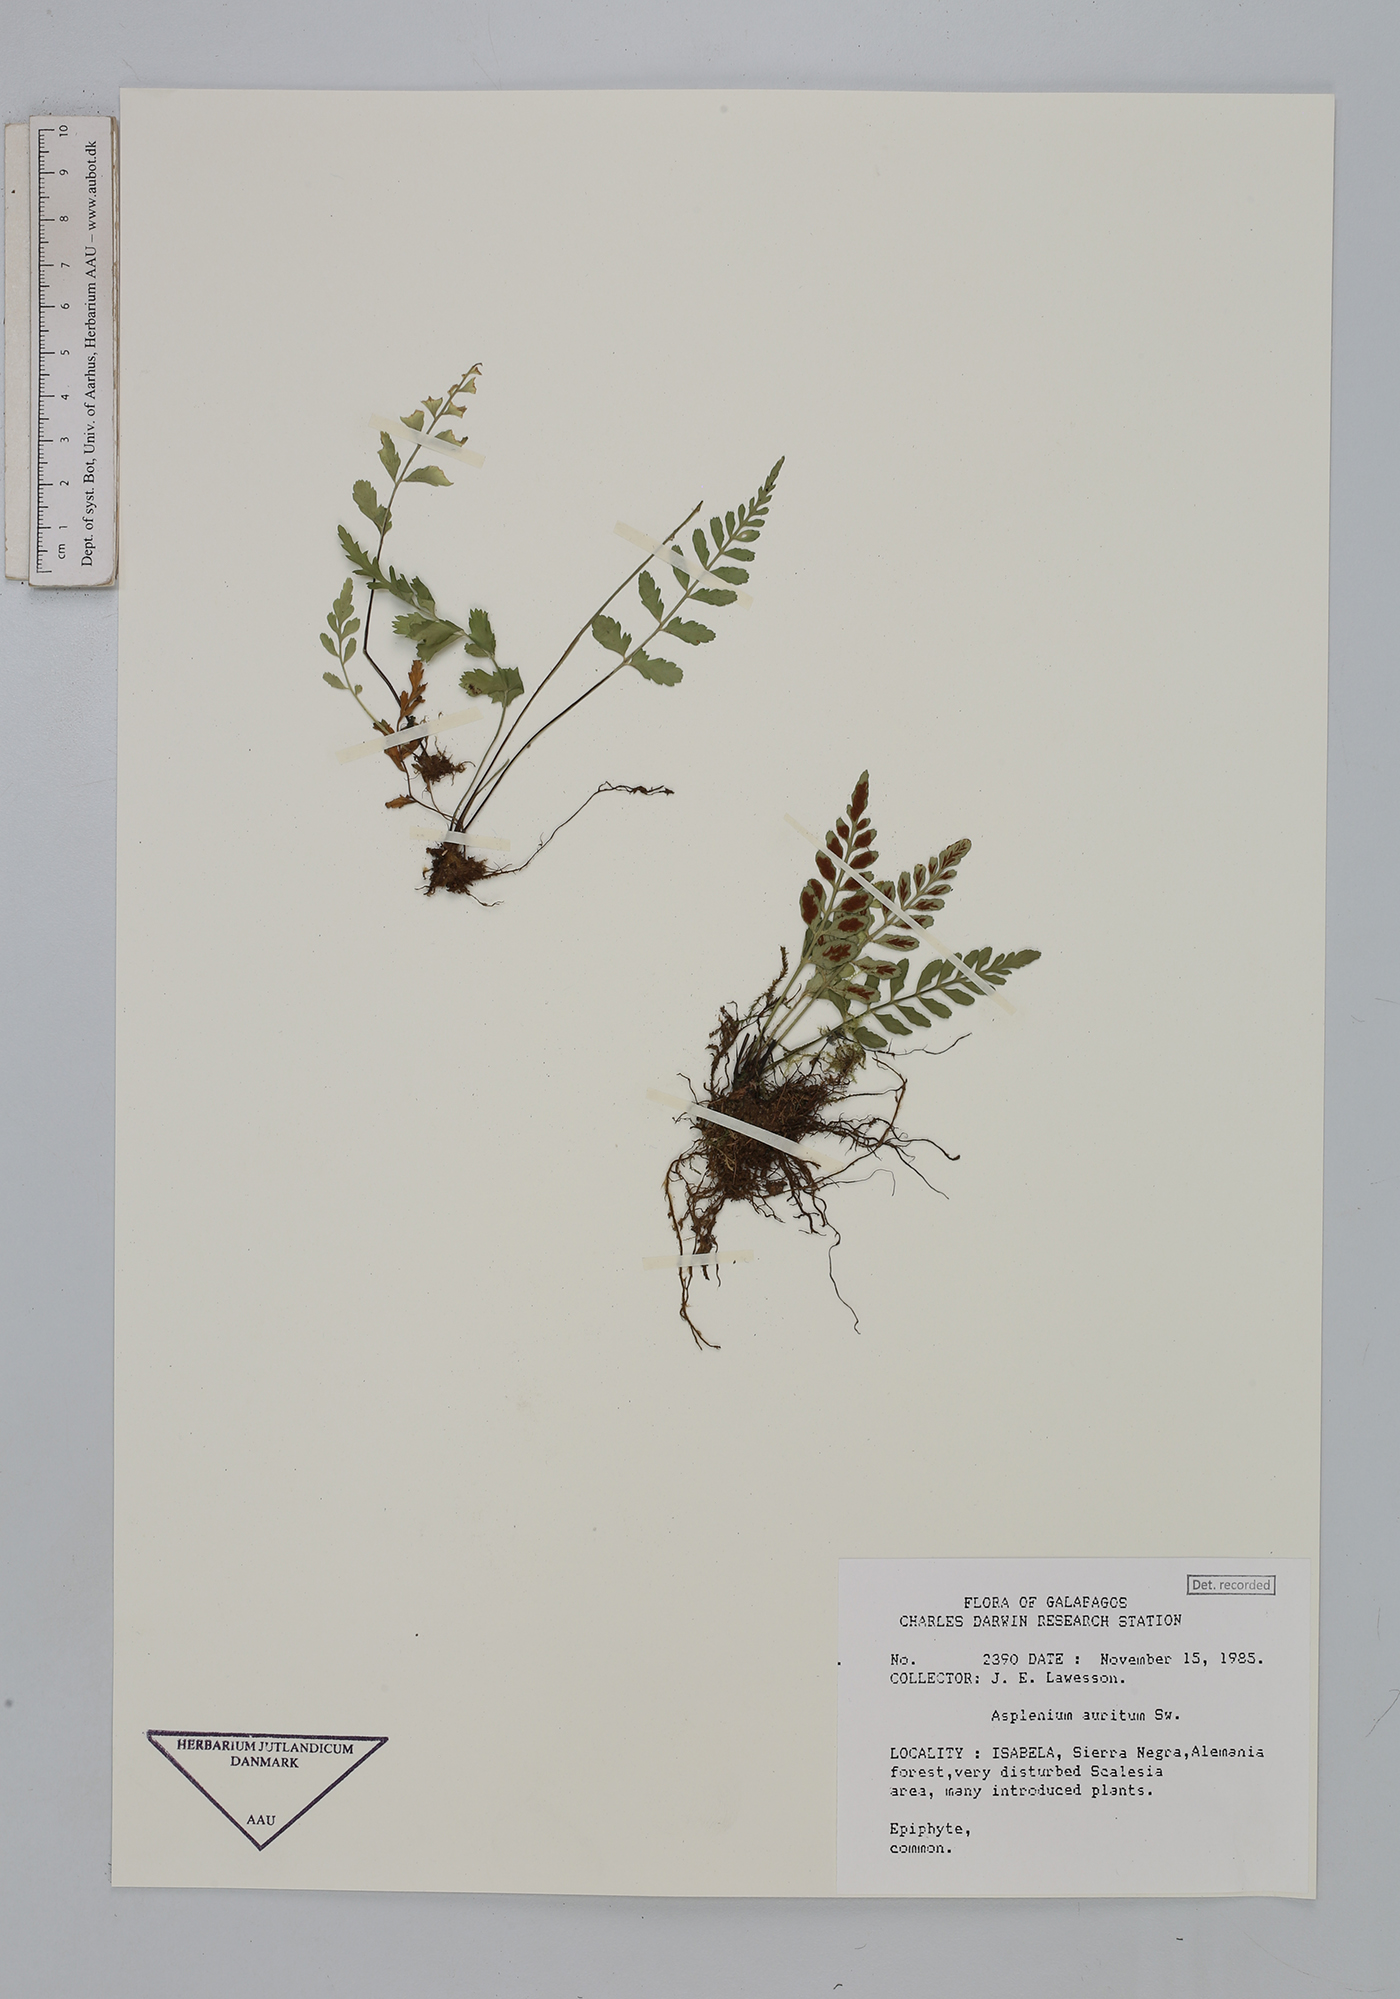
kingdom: Plantae
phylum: Tracheophyta
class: Polypodiopsida
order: Polypodiales
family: Aspleniaceae
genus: Asplenium
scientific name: Asplenium auritum
